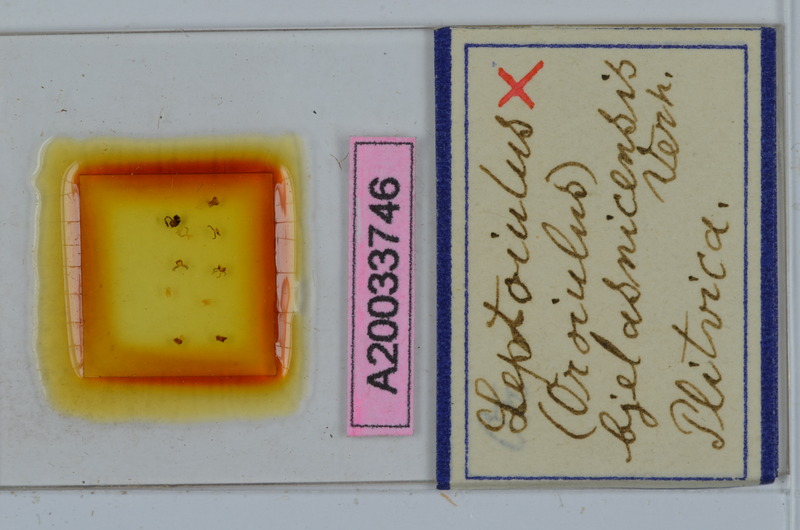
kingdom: Animalia
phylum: Arthropoda
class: Diplopoda
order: Julida
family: Julidae
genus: Xestoiulus
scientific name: Xestoiulus bjelasnicensis
